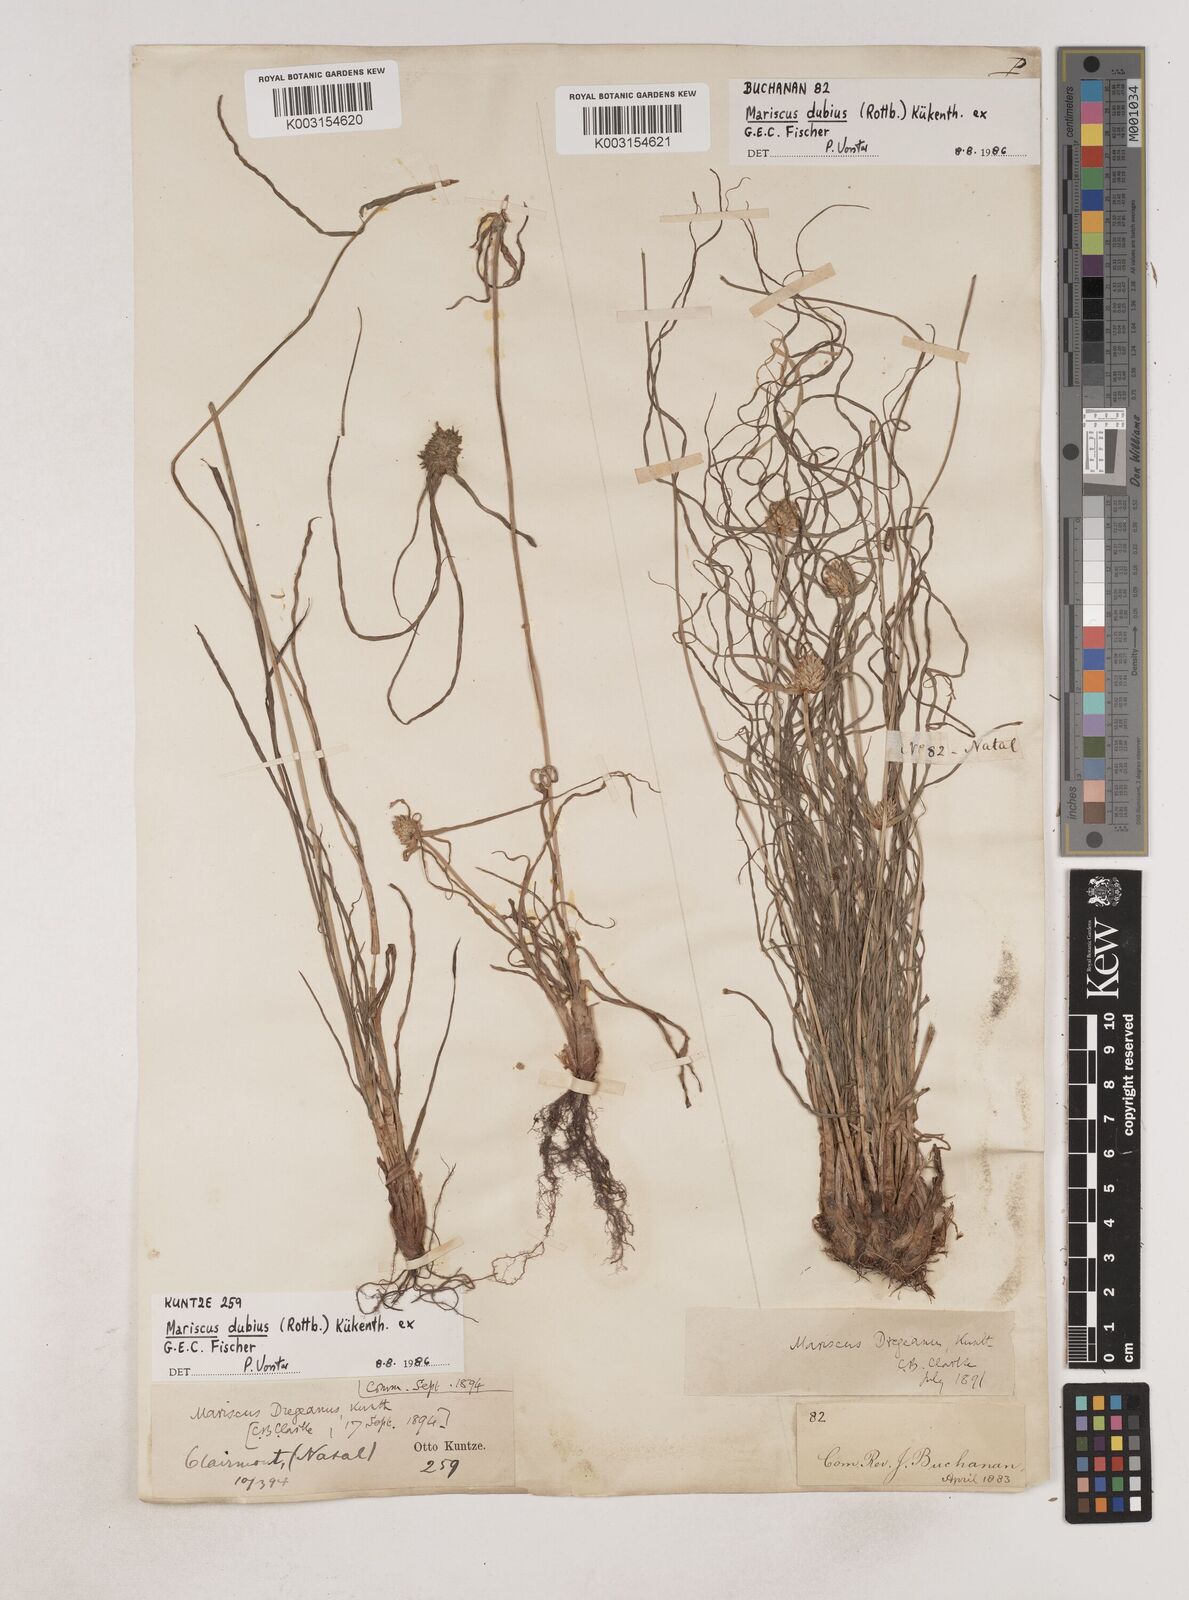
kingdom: Plantae
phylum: Tracheophyta
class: Liliopsida
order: Poales
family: Cyperaceae
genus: Cyperus
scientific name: Cyperus dubius
